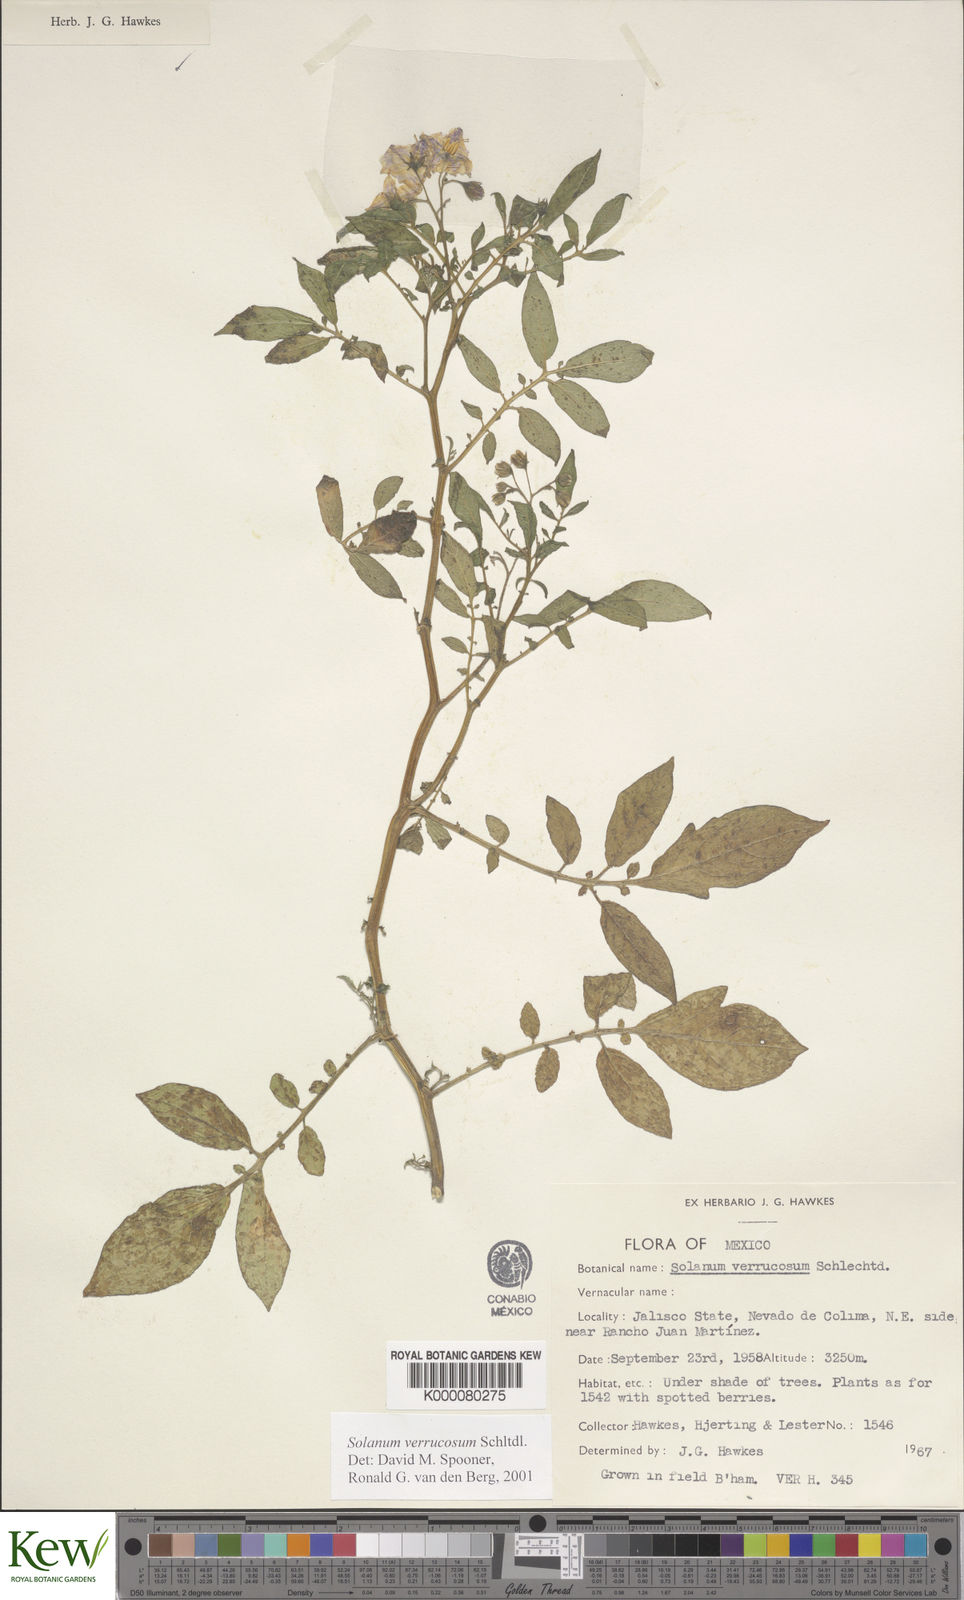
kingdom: Plantae
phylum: Tracheophyta
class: Magnoliopsida
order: Solanales
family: Solanaceae
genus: Solanum
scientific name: Solanum verrucosum
